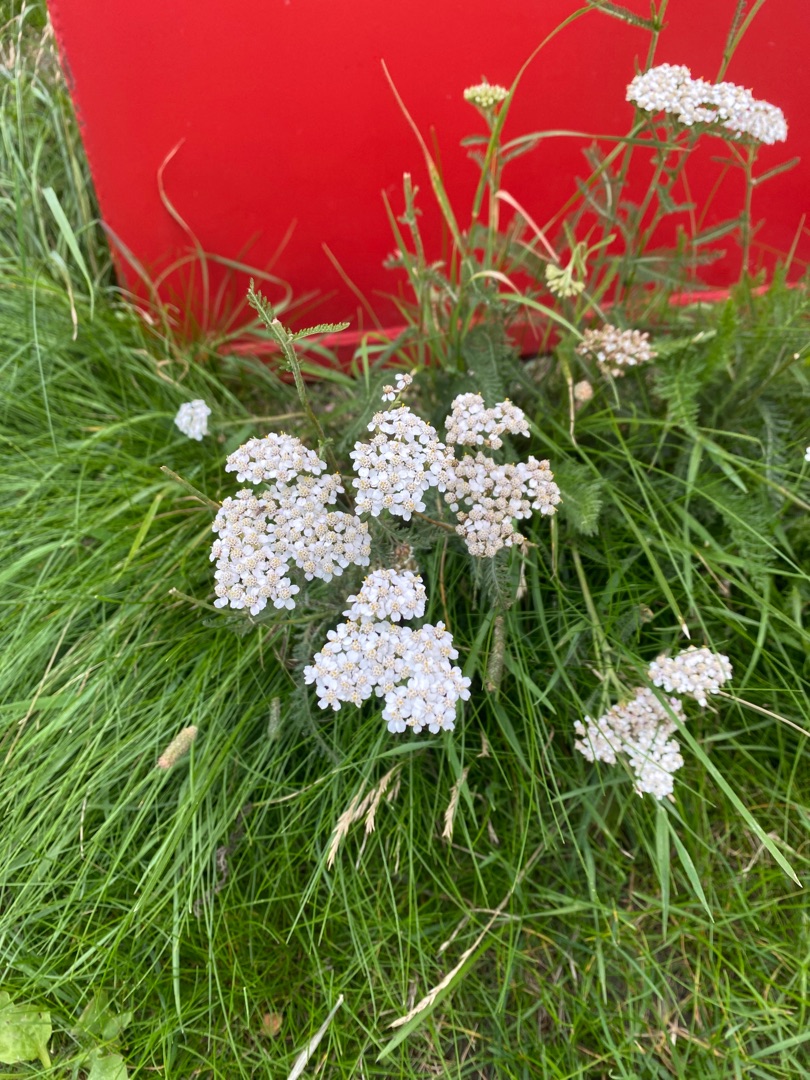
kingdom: Plantae
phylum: Tracheophyta
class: Magnoliopsida
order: Asterales
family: Asteraceae
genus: Achillea
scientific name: Achillea millefolium
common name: Almindelig røllike
